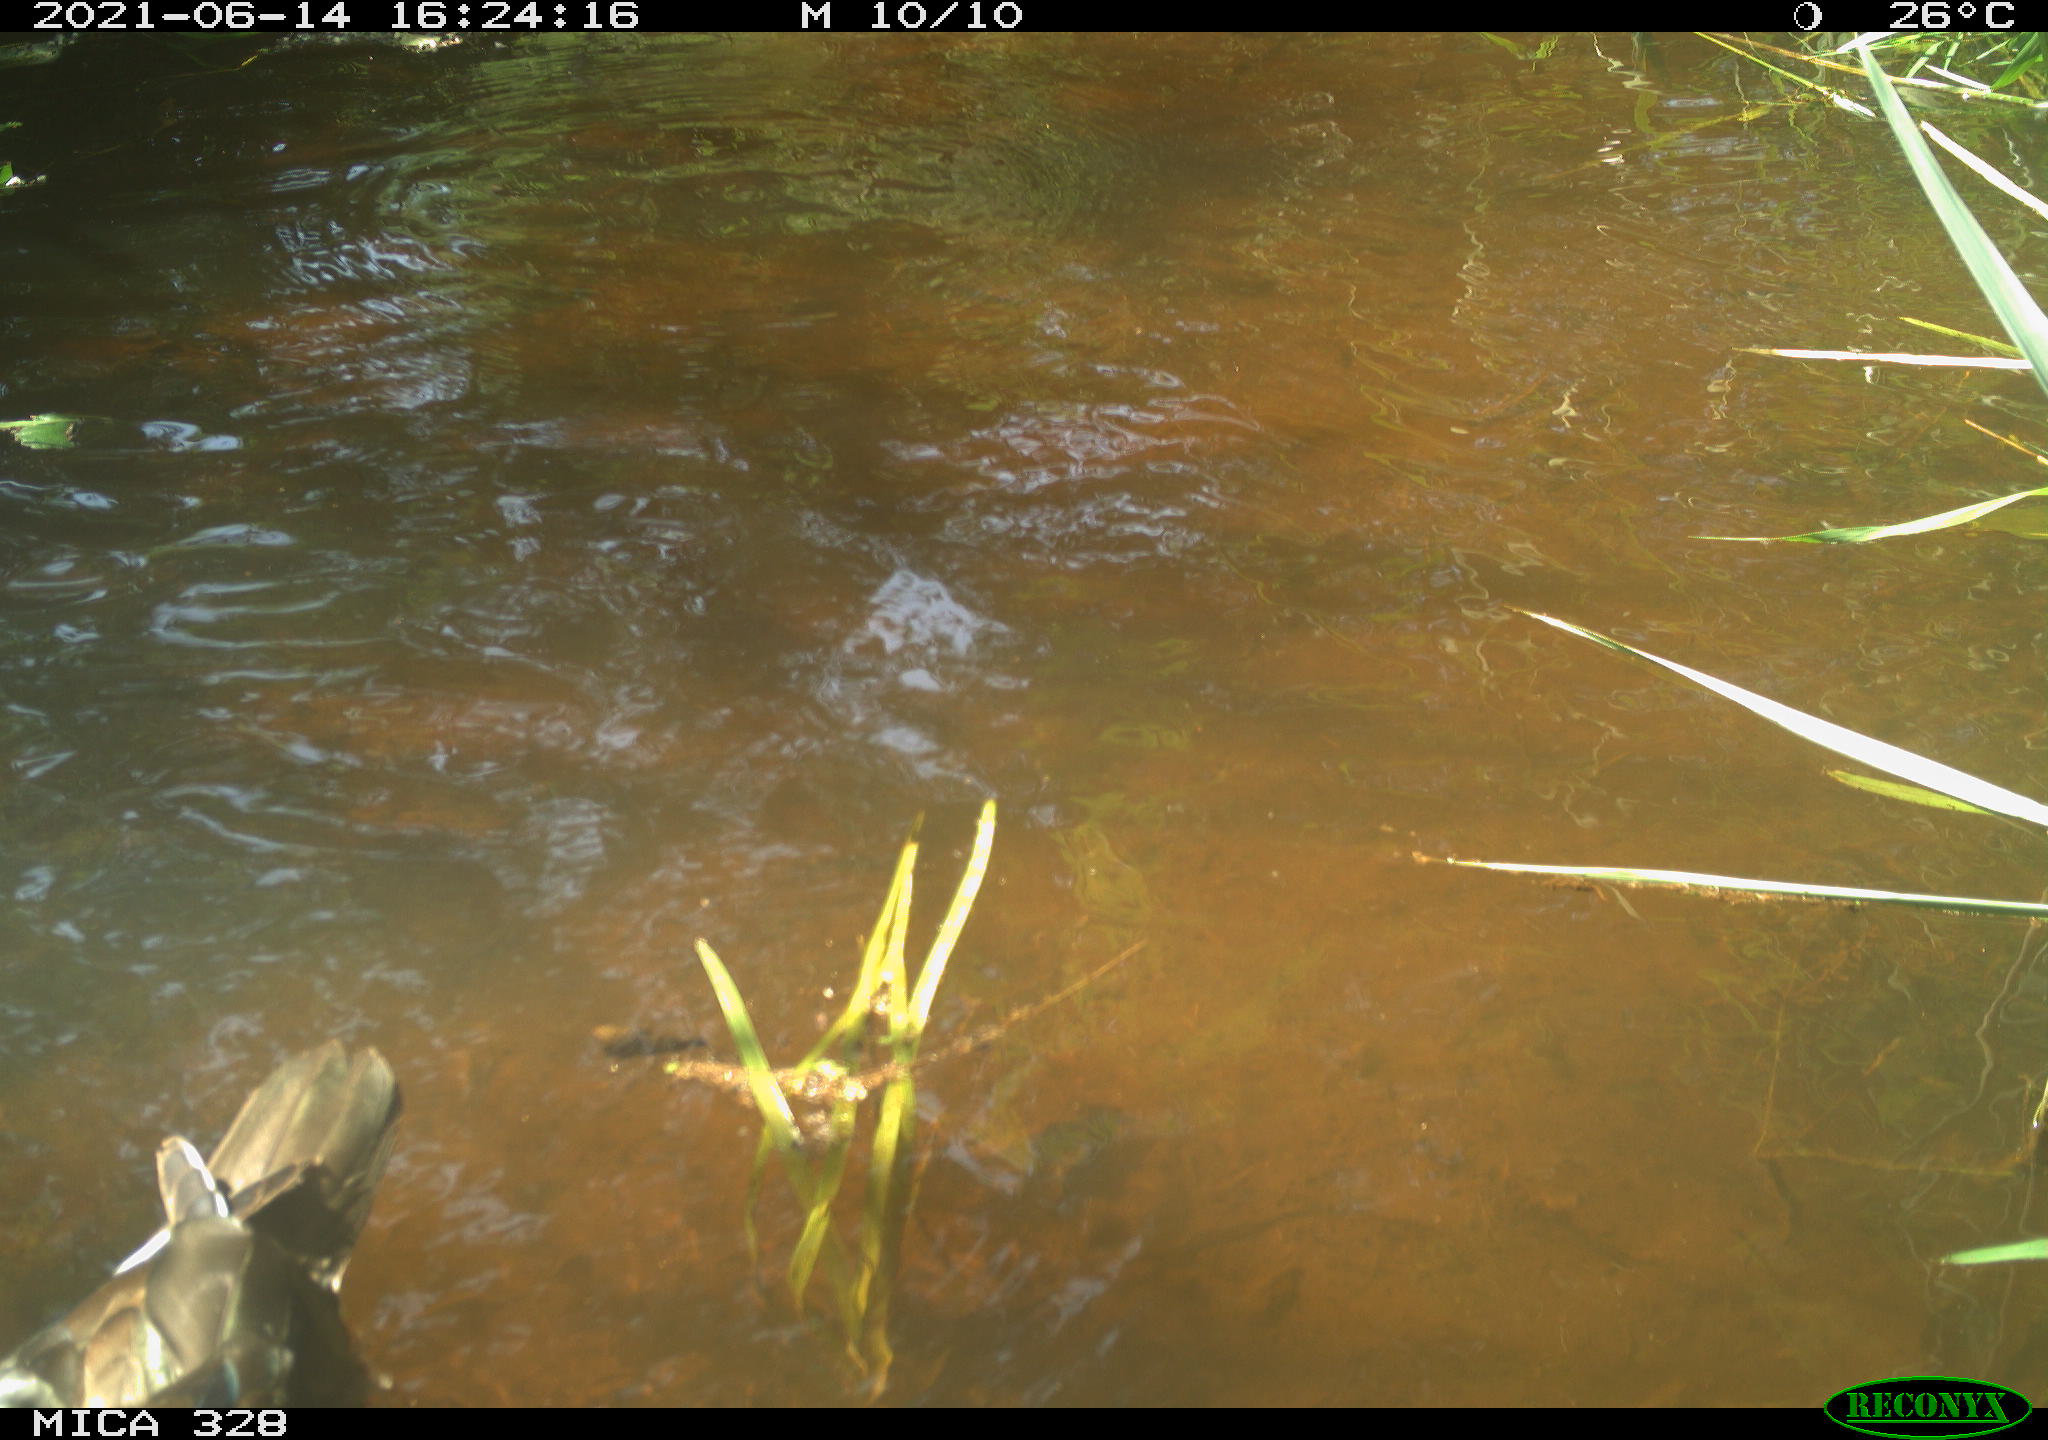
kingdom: Animalia
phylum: Chordata
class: Aves
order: Anseriformes
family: Anatidae
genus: Aix
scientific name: Aix galericulata
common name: Mandarin duck
